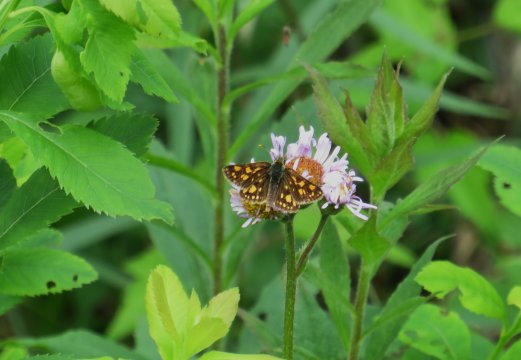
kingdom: Animalia
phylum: Arthropoda
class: Insecta
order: Lepidoptera
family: Hesperiidae
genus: Carterocephalus
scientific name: Carterocephalus palaemon
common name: Chequered Skipper
